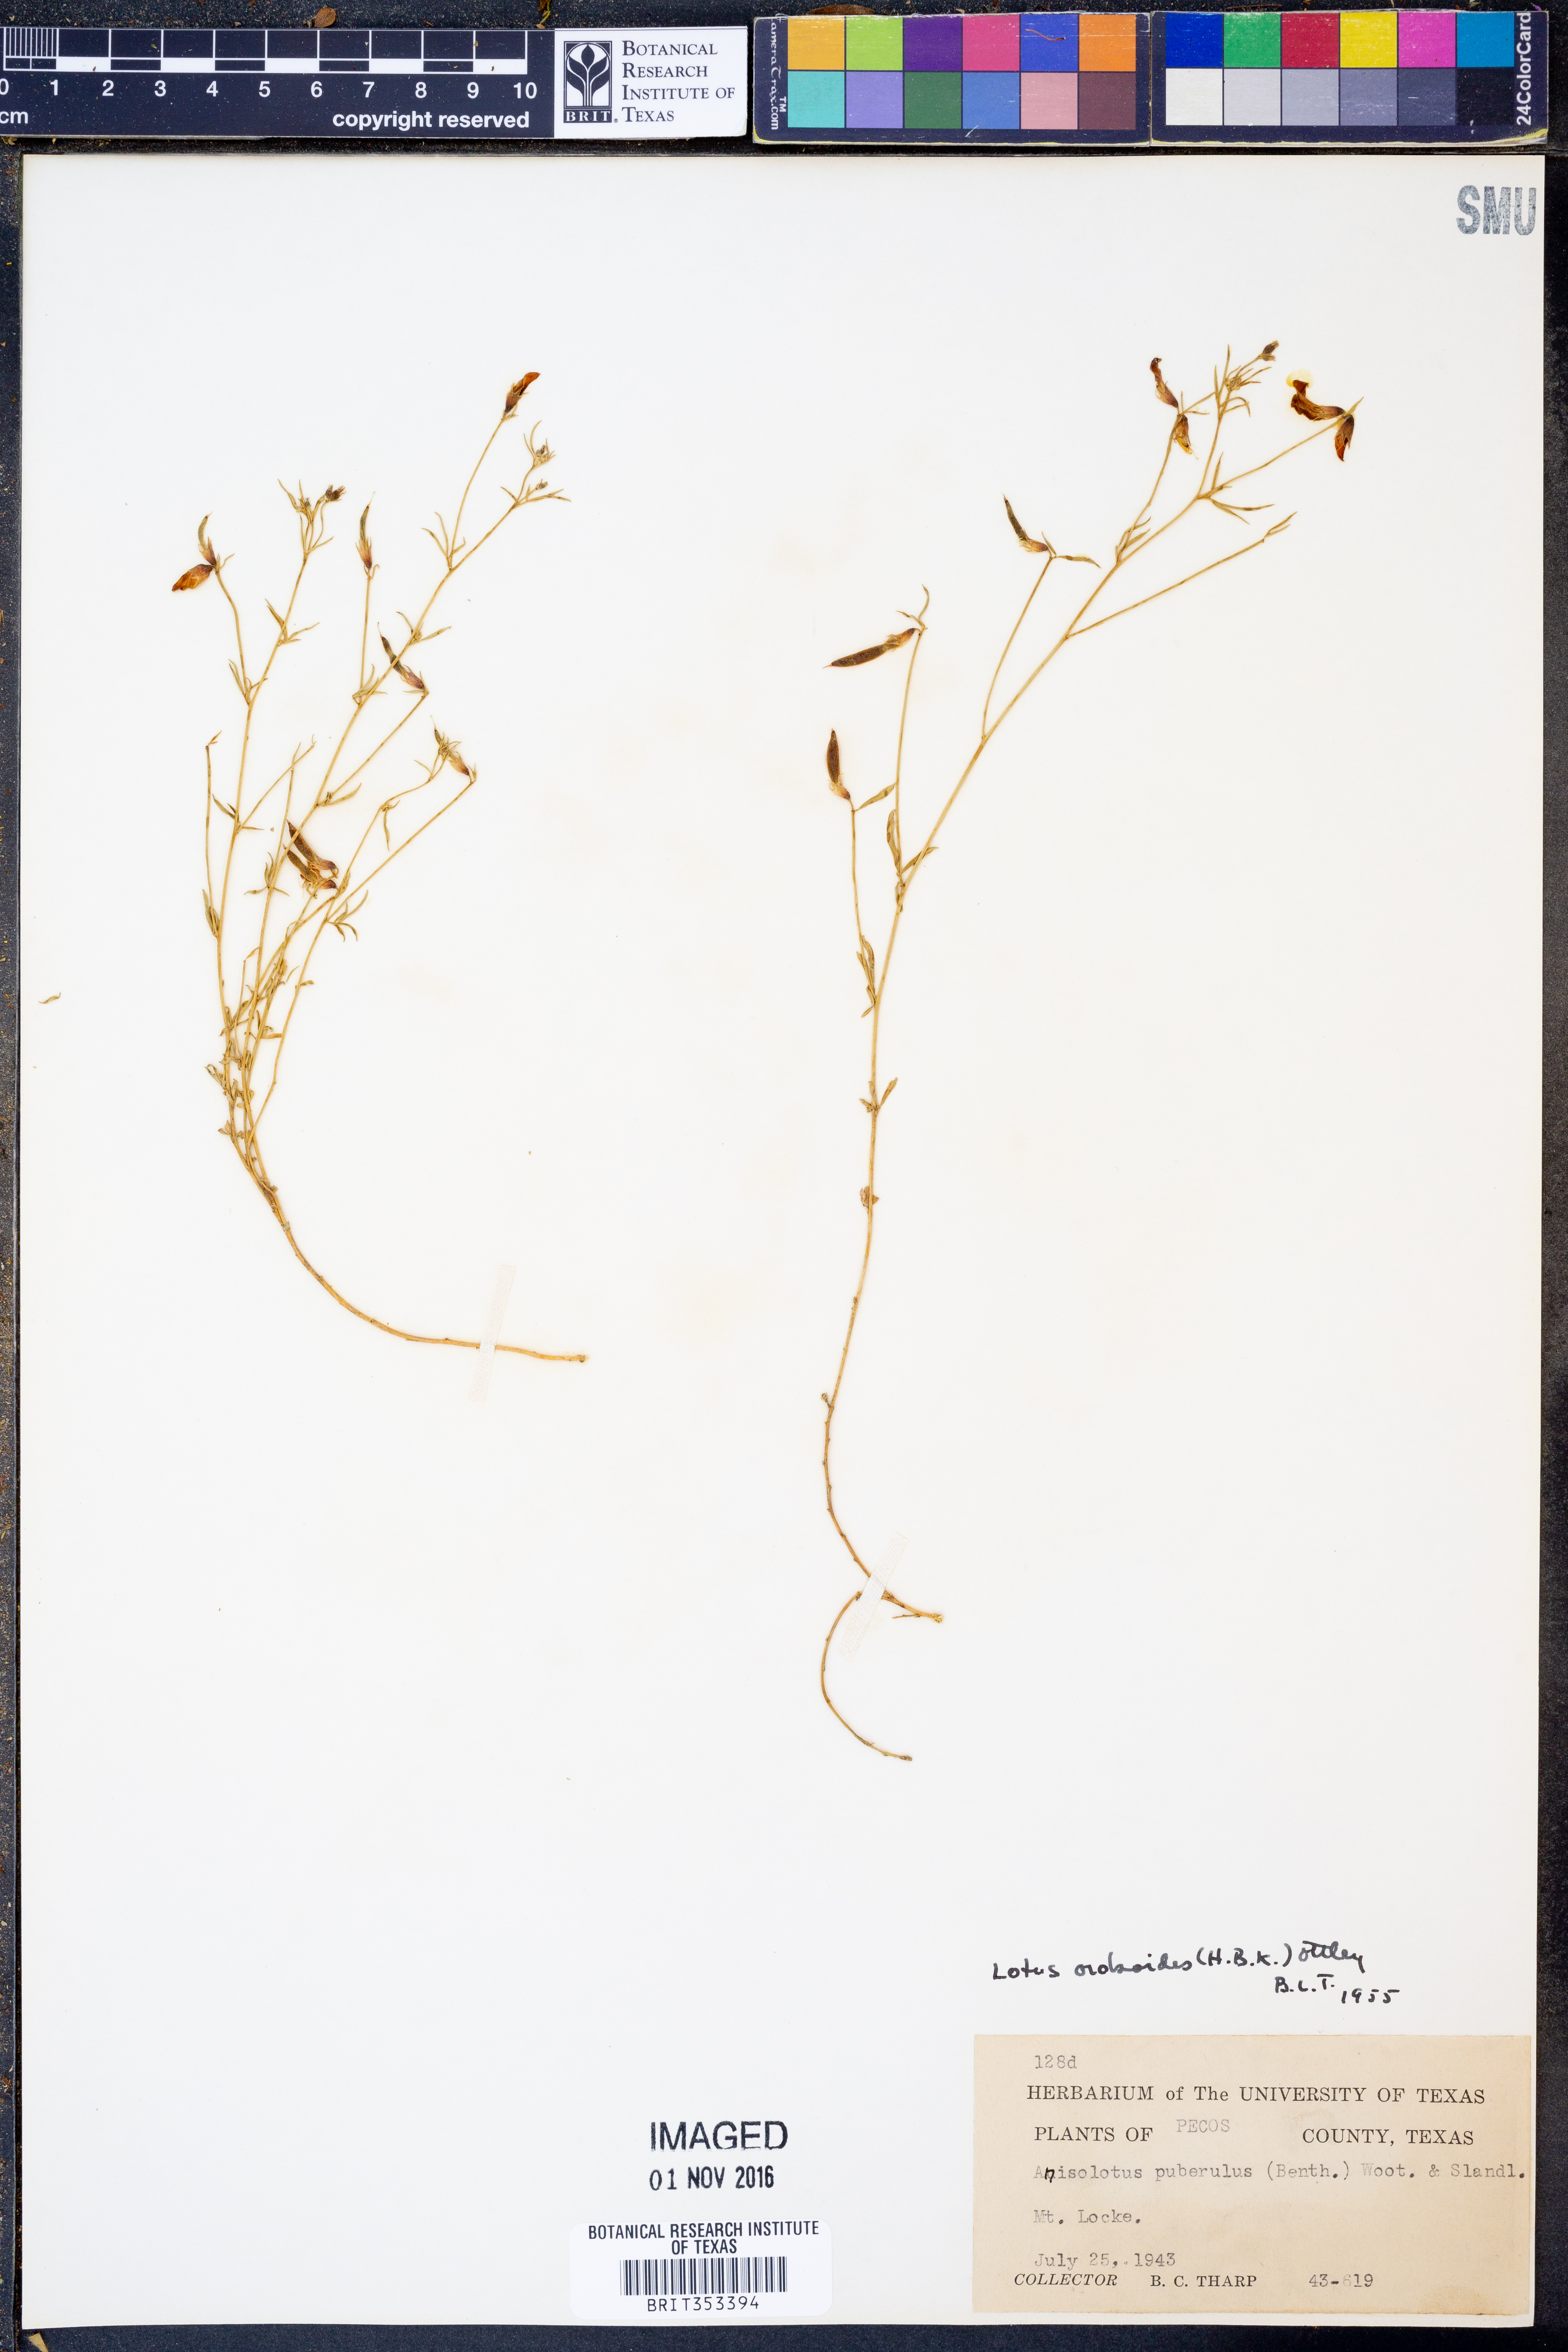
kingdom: Plantae
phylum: Tracheophyta
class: Magnoliopsida
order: Fabales
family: Fabaceae
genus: Acmispon
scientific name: Acmispon oroboides
